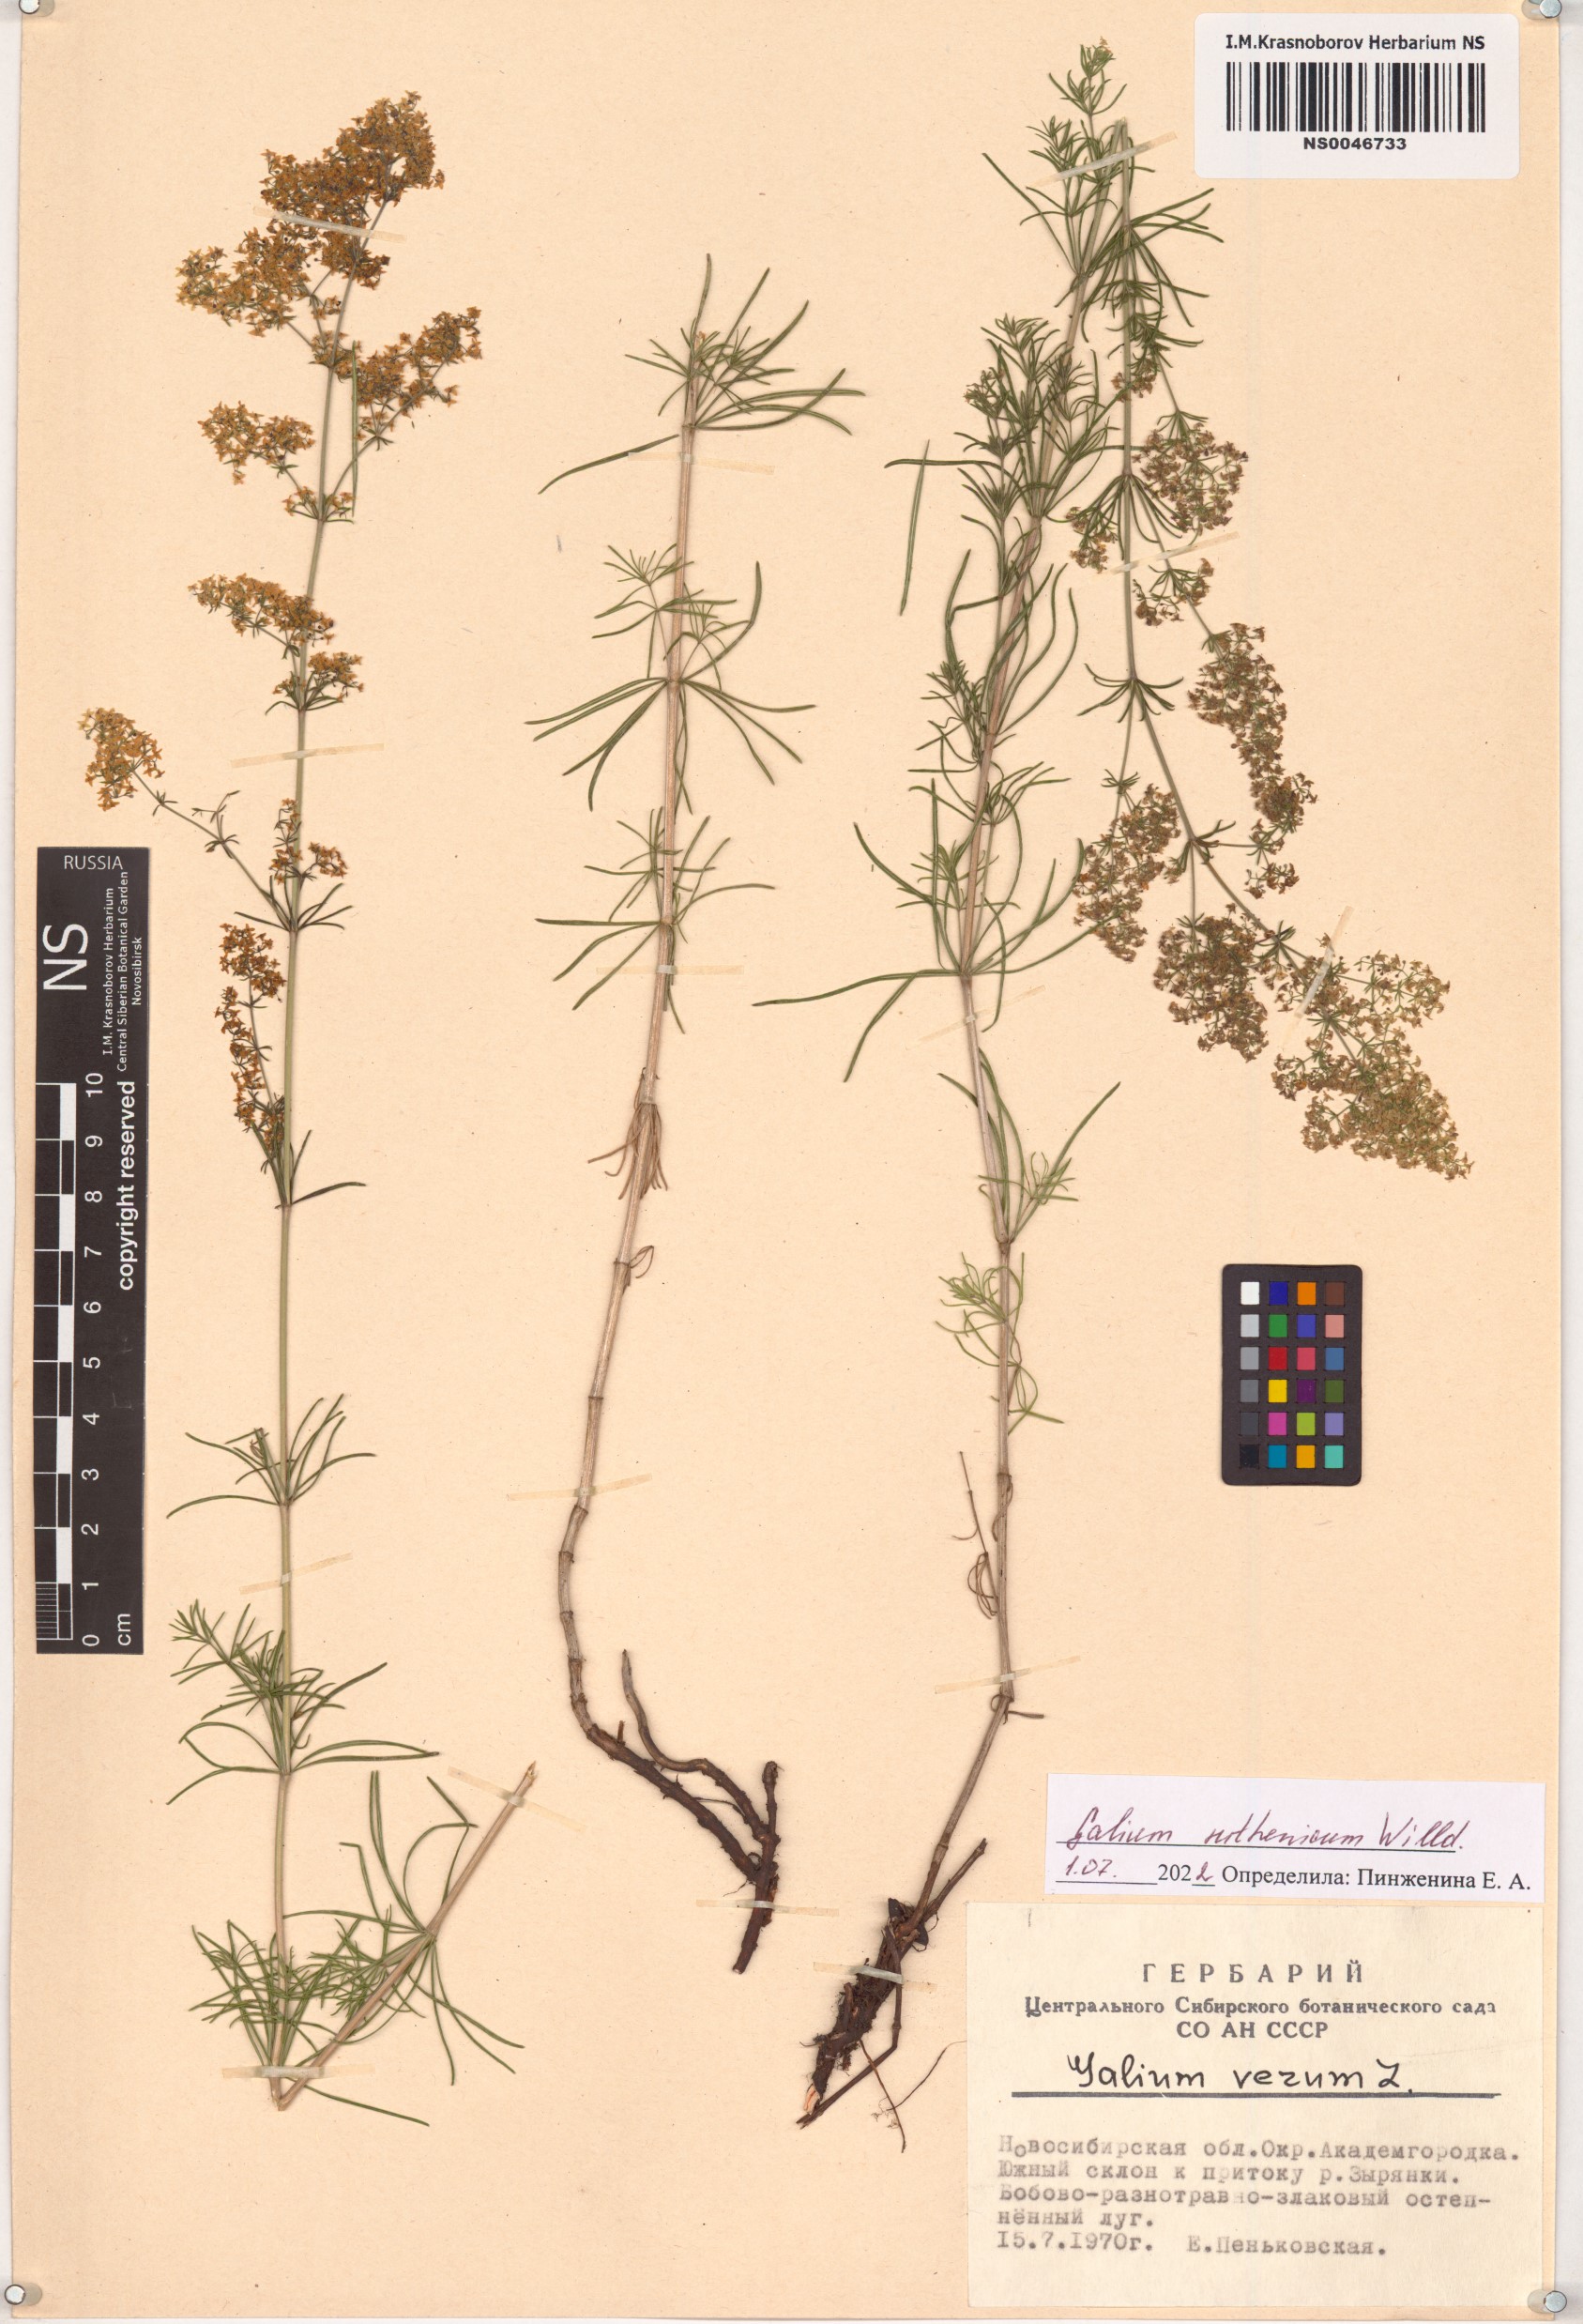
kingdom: Plantae
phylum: Tracheophyta
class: Magnoliopsida
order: Gentianales
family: Rubiaceae
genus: Galium
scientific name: Galium verum
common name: Lady's bedstraw
